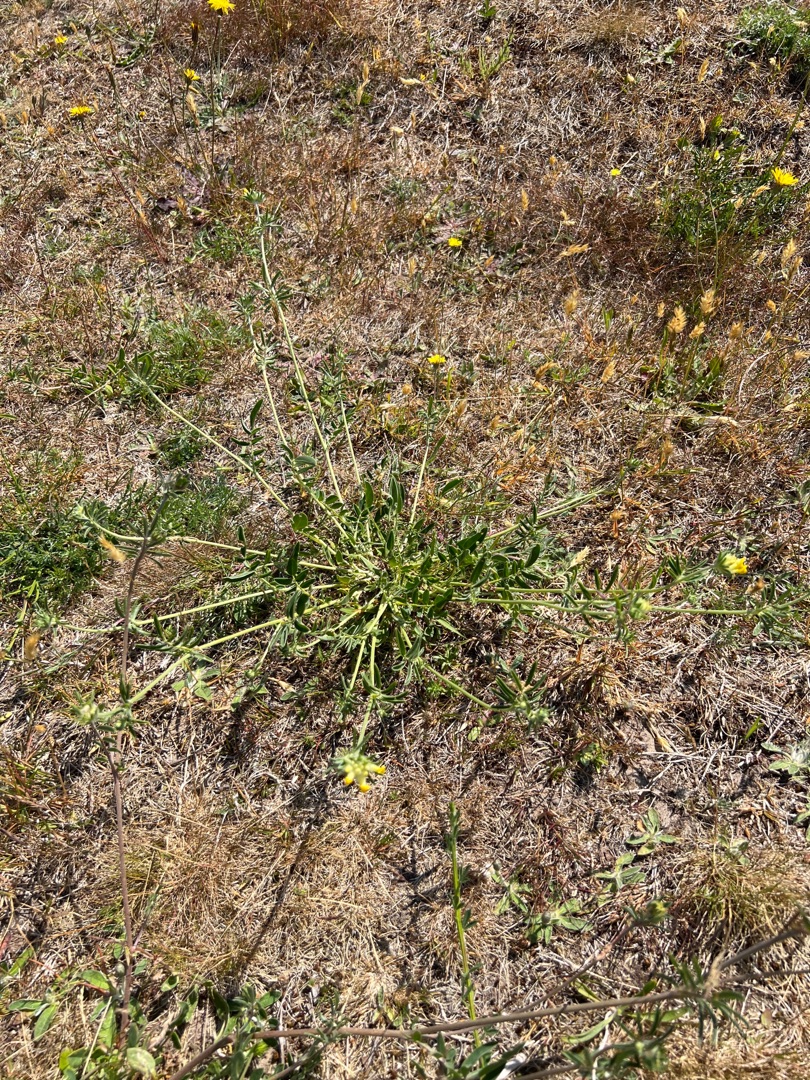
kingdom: Plantae
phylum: Tracheophyta
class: Magnoliopsida
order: Fabales
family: Fabaceae
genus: Anthyllis
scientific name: Anthyllis vulneraria
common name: Rundbælg
